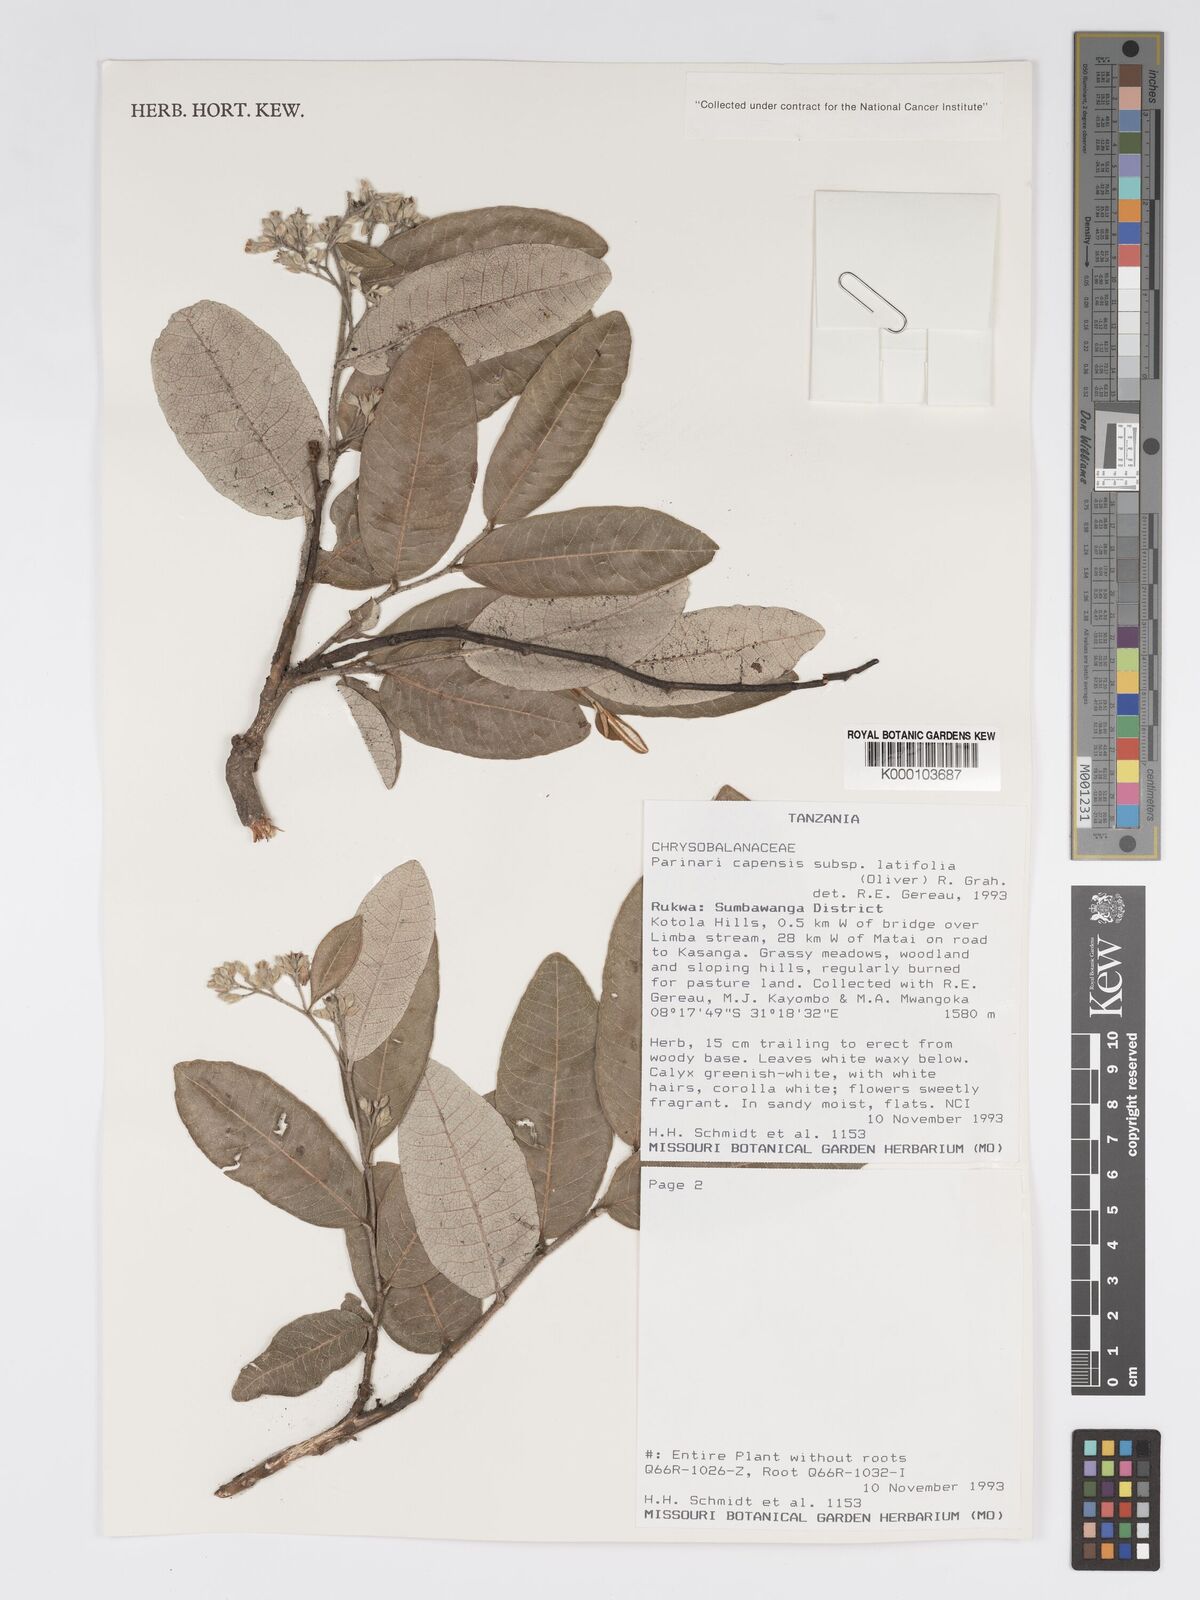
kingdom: Plantae
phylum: Tracheophyta
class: Magnoliopsida
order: Malpighiales
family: Chrysobalanaceae
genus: Parinari
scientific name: Parinari capensis
